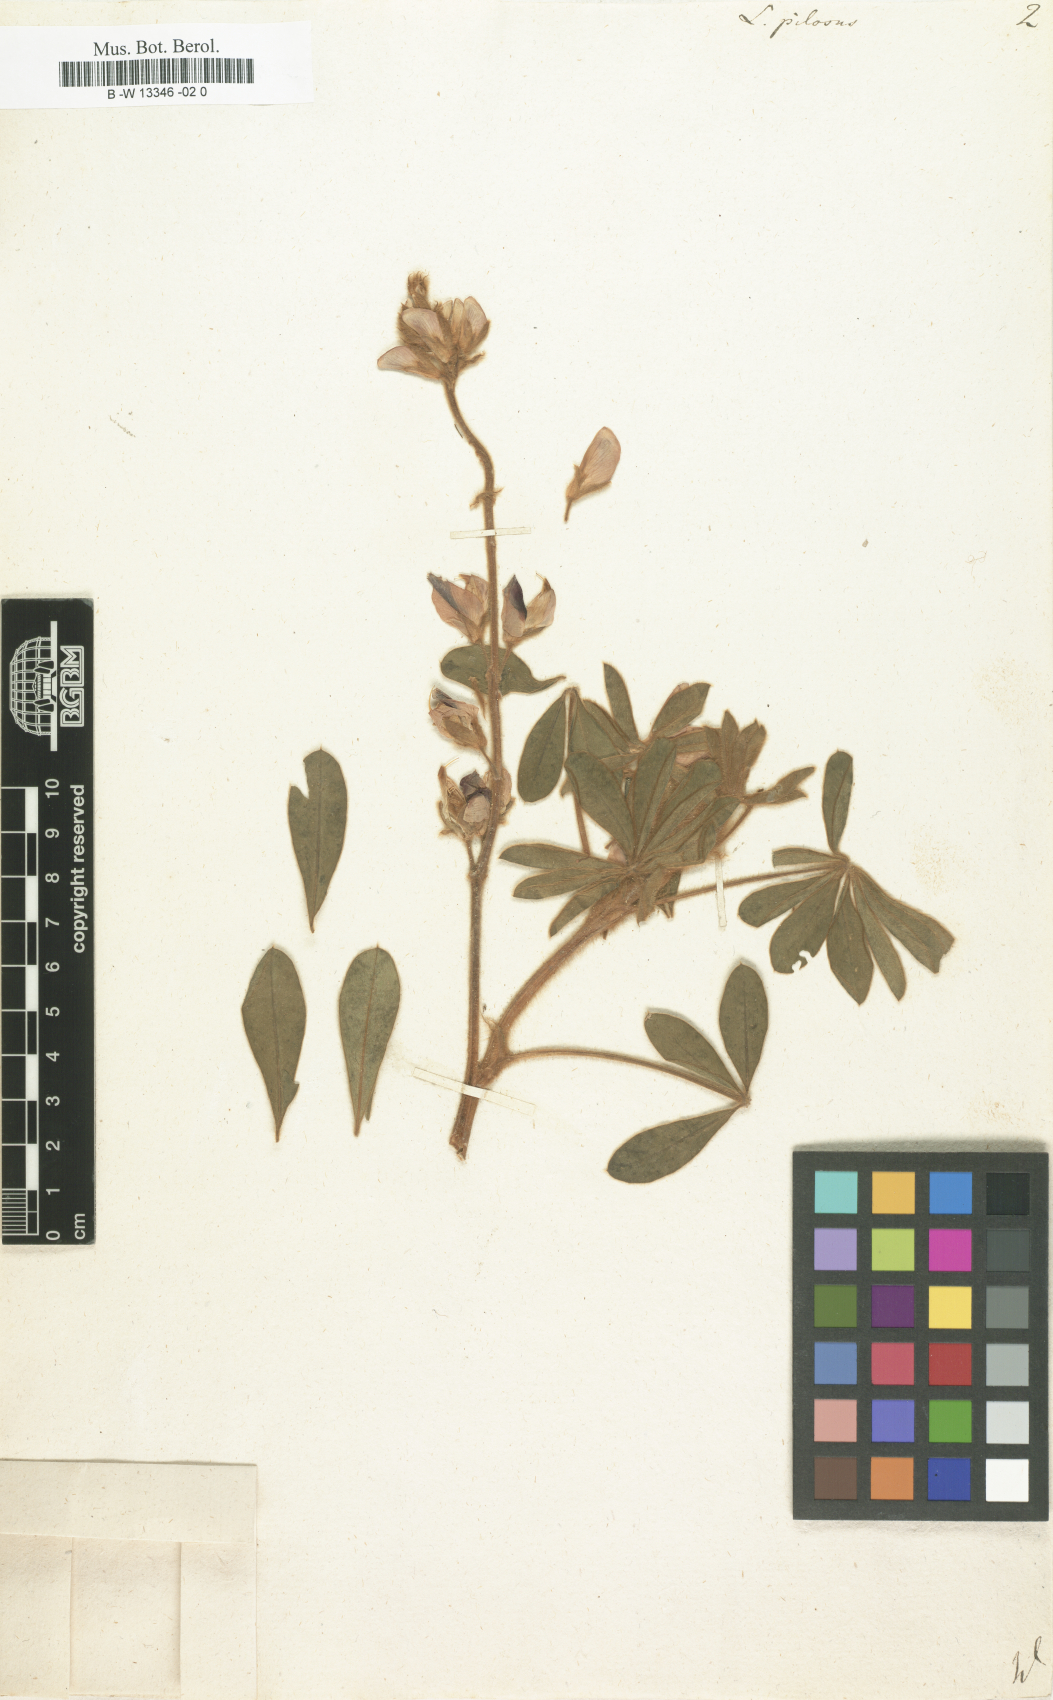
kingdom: Plantae
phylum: Tracheophyta
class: Magnoliopsida
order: Fabales
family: Fabaceae
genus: Lupinus
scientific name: Lupinus pilosus
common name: Blue lupine
